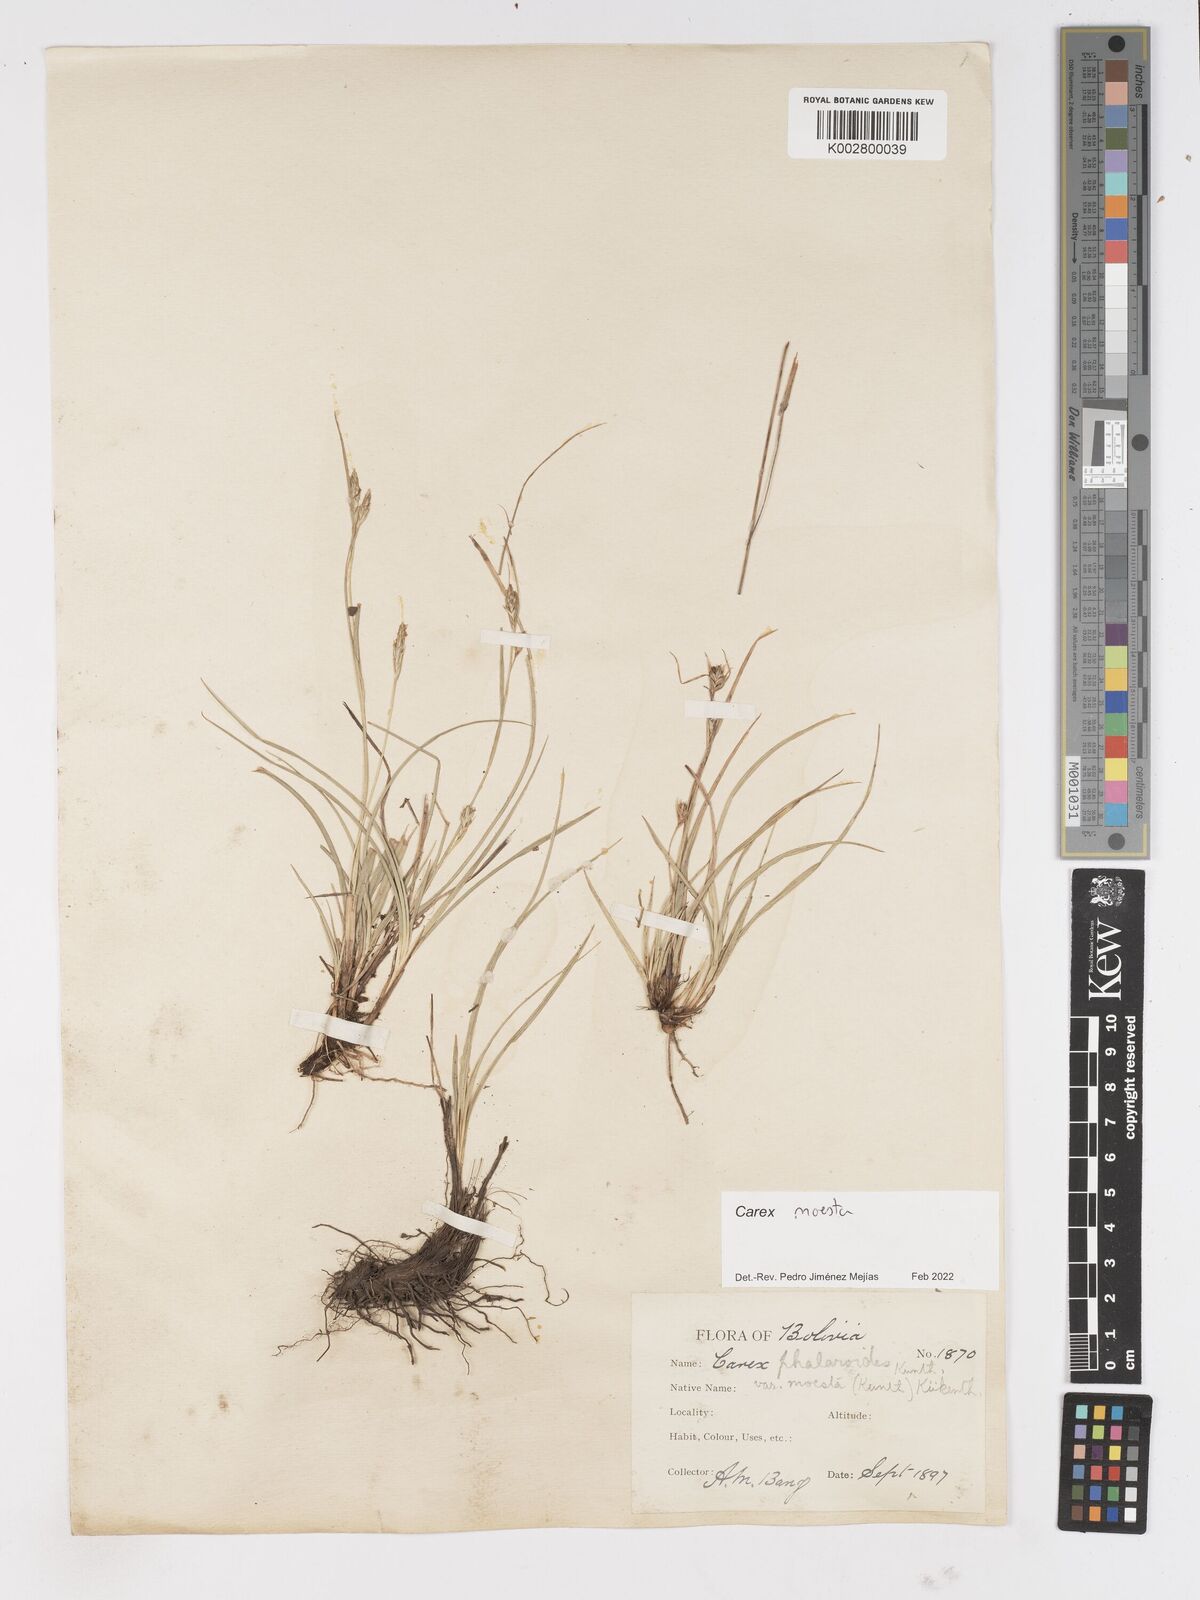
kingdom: Plantae
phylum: Tracheophyta
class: Liliopsida
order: Poales
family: Cyperaceae
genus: Carex
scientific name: Carex phalaroides
